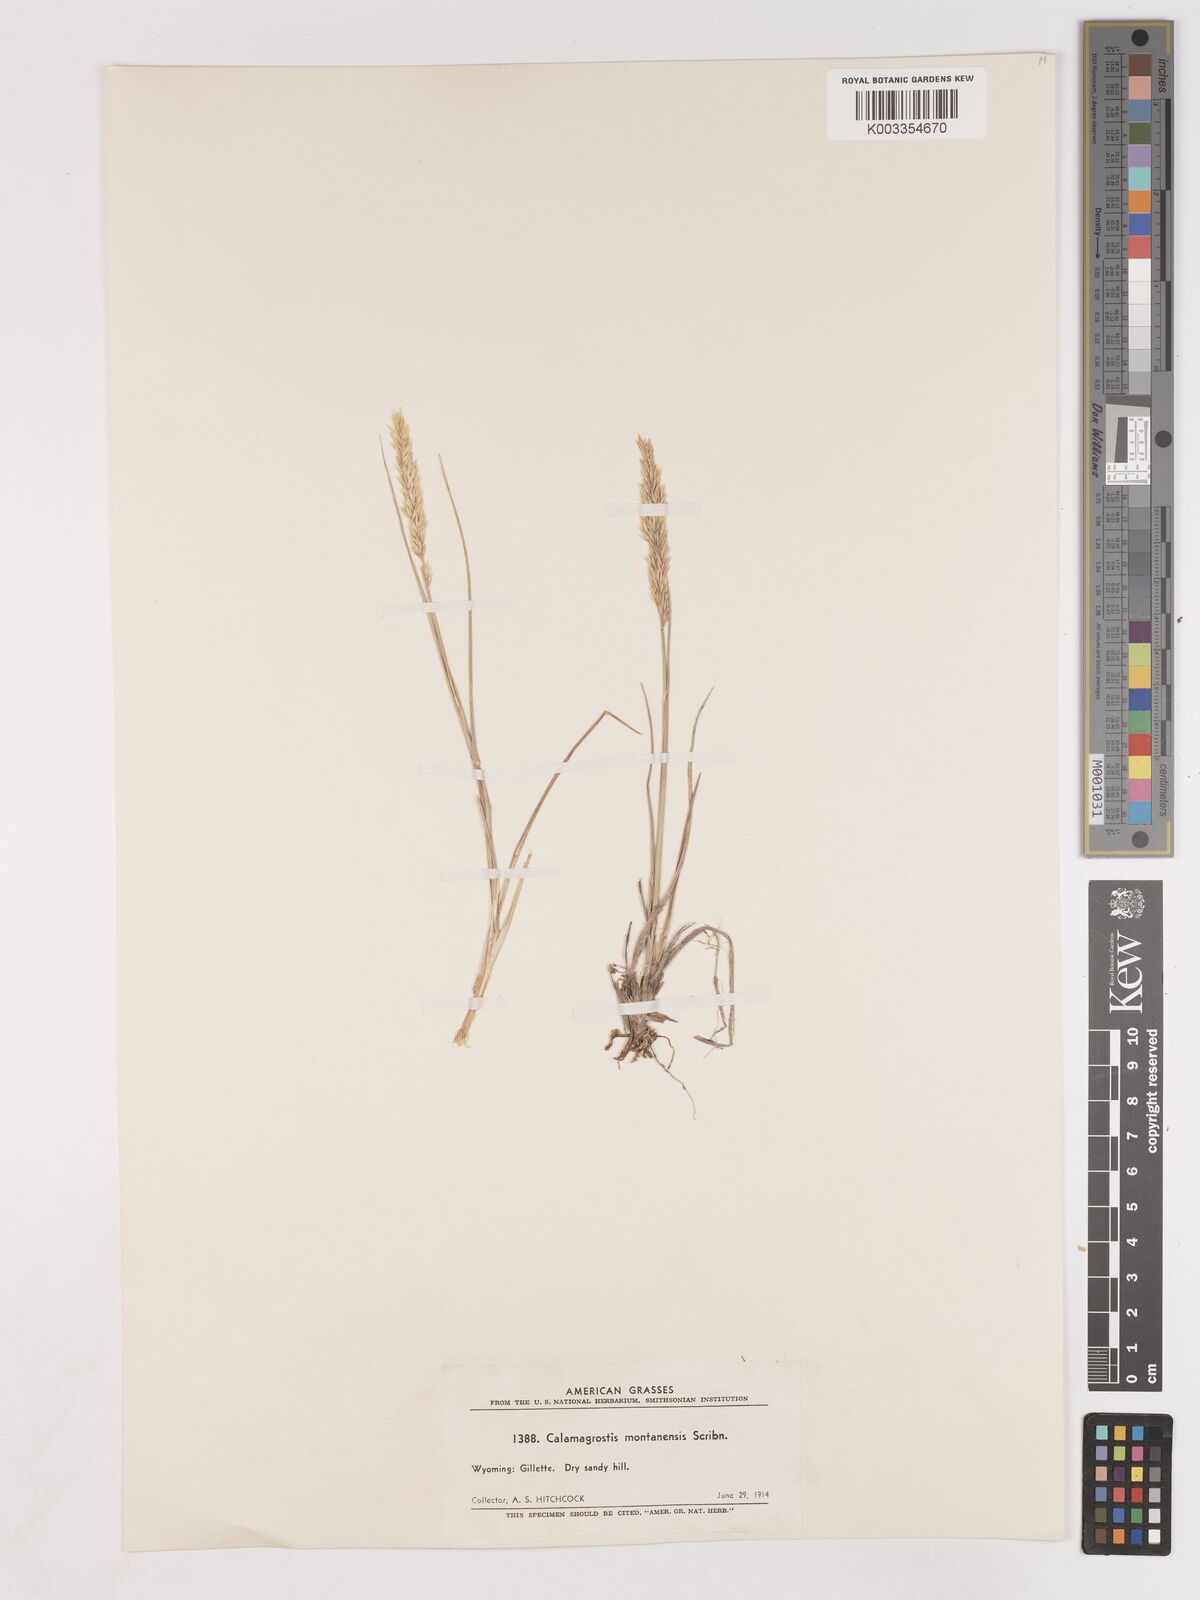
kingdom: Plantae
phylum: Tracheophyta
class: Liliopsida
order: Poales
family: Poaceae
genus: Calamagrostis
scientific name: Calamagrostis montanensis
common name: Plains reedgrass
